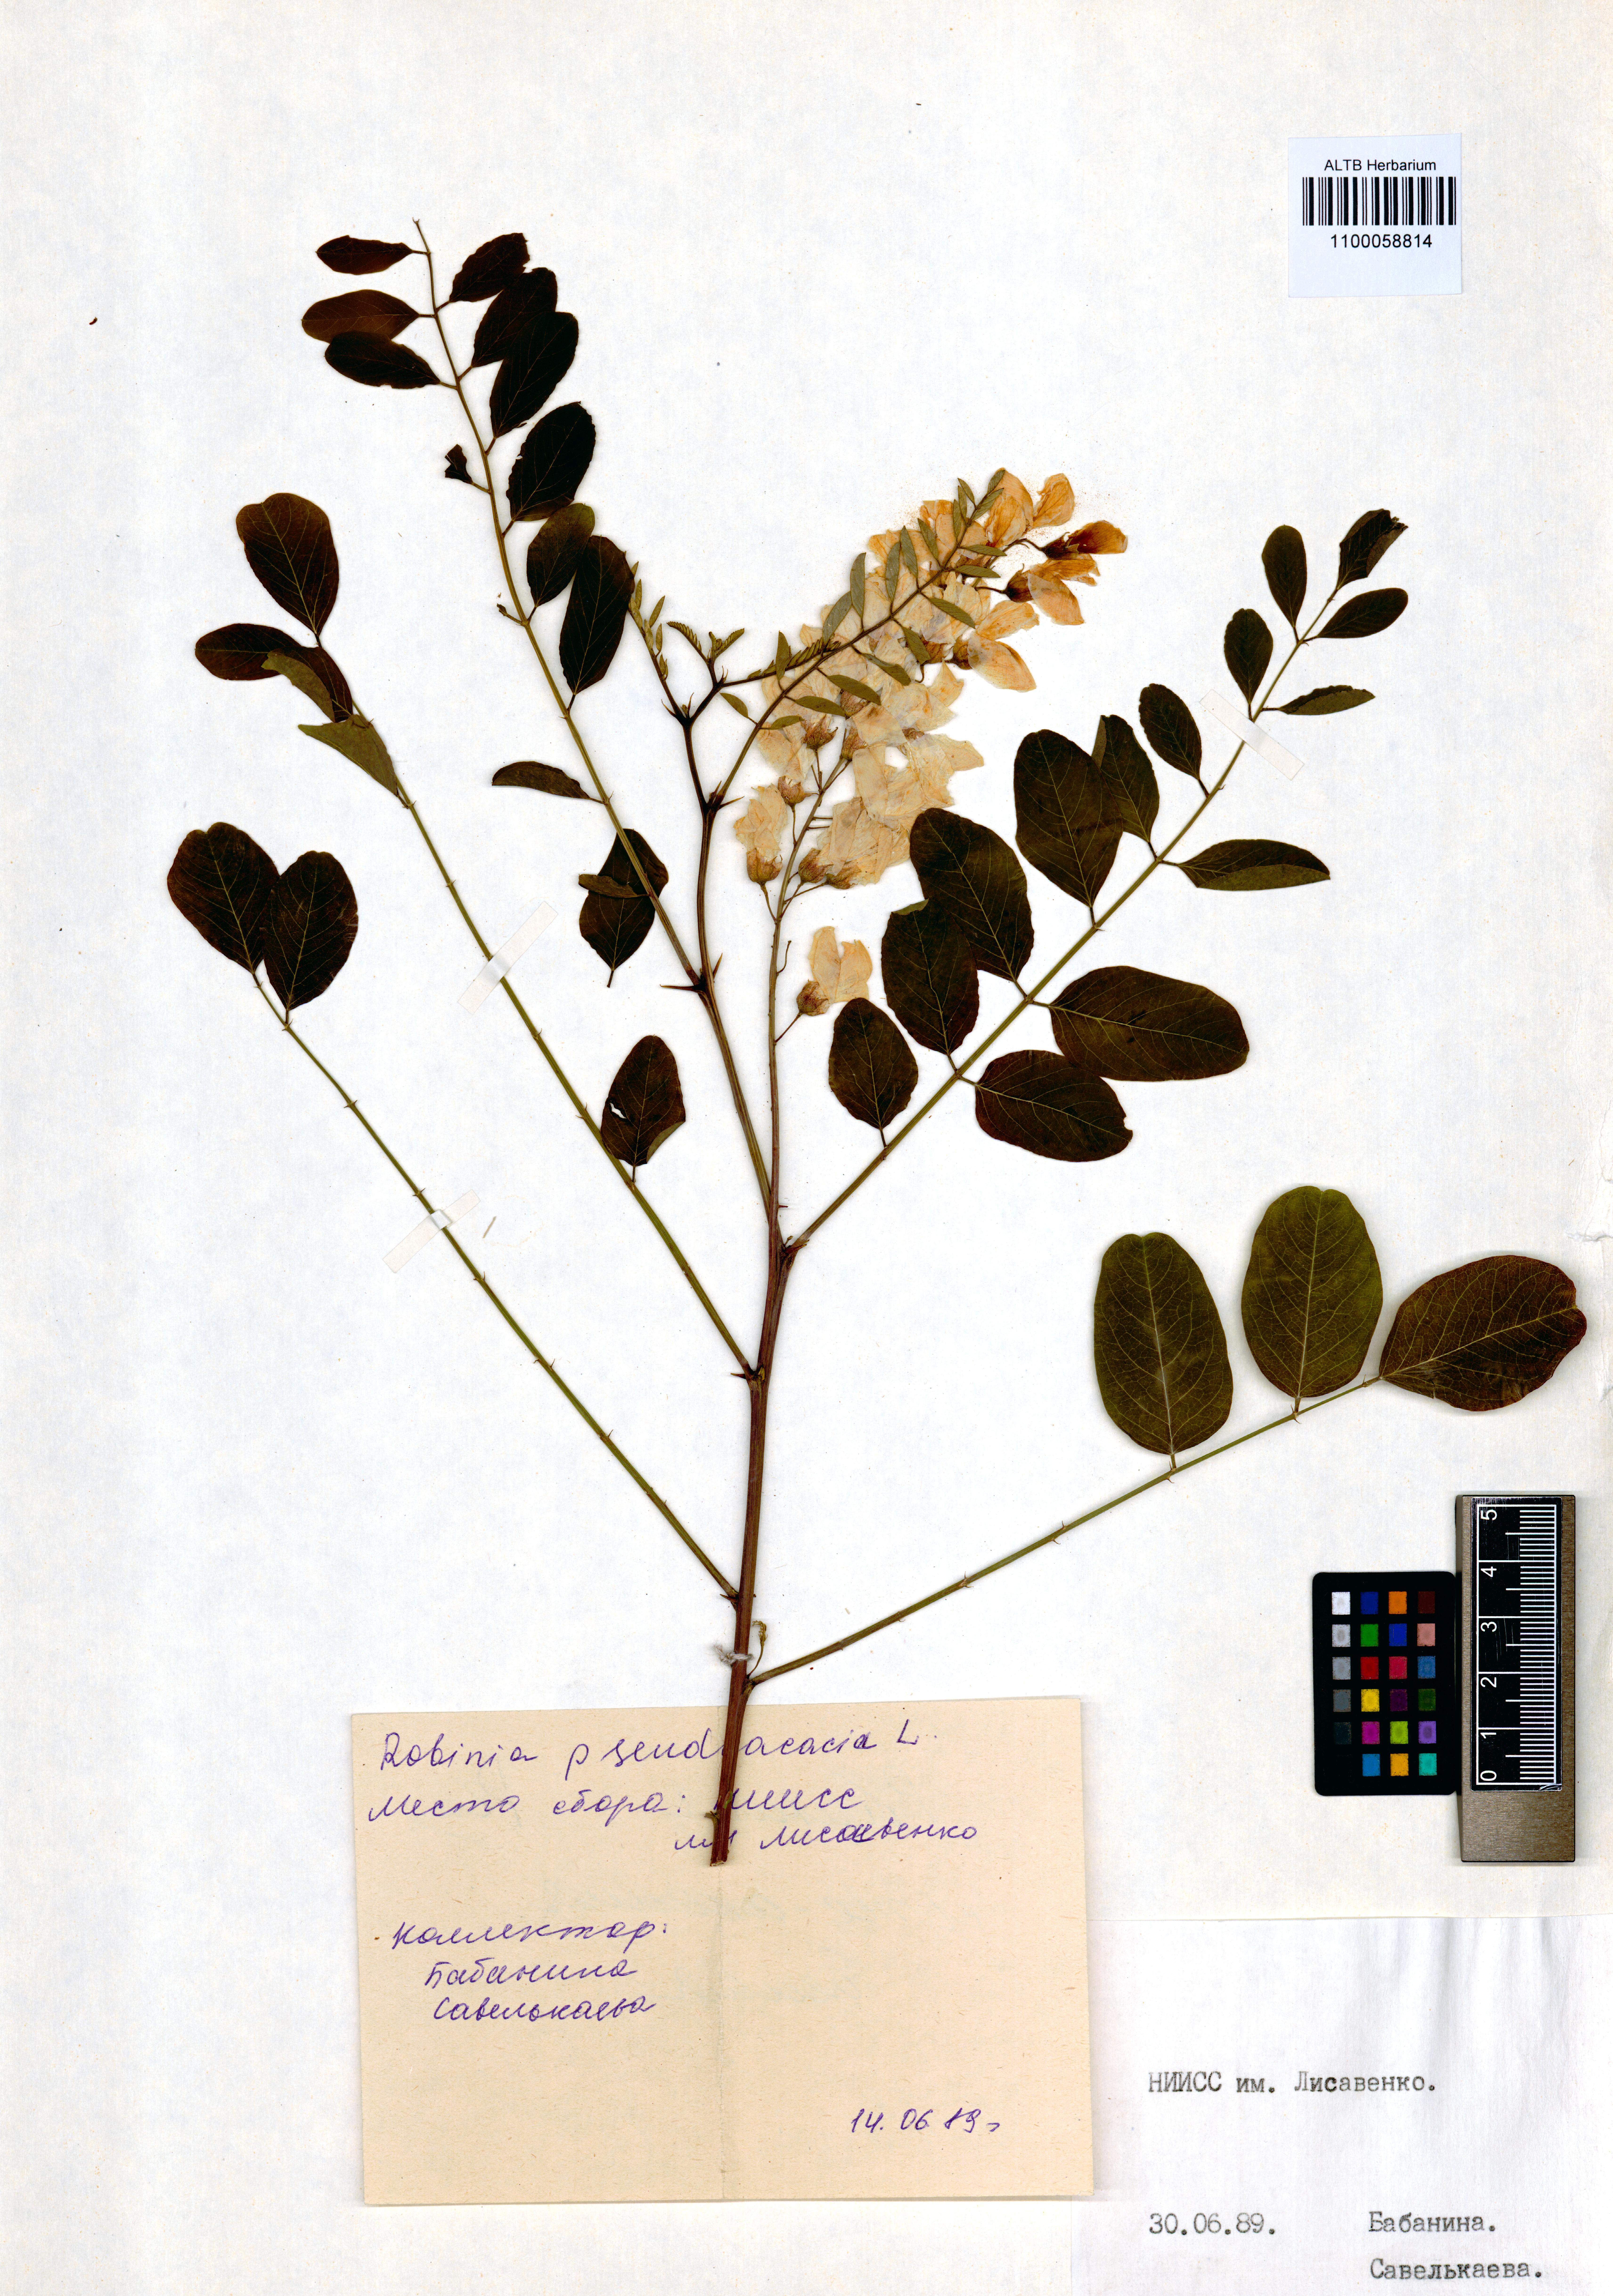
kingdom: Plantae
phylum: Tracheophyta
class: Magnoliopsida
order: Fabales
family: Fabaceae
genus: Robinia
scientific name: Robinia pseudoacacia
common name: Black locust
